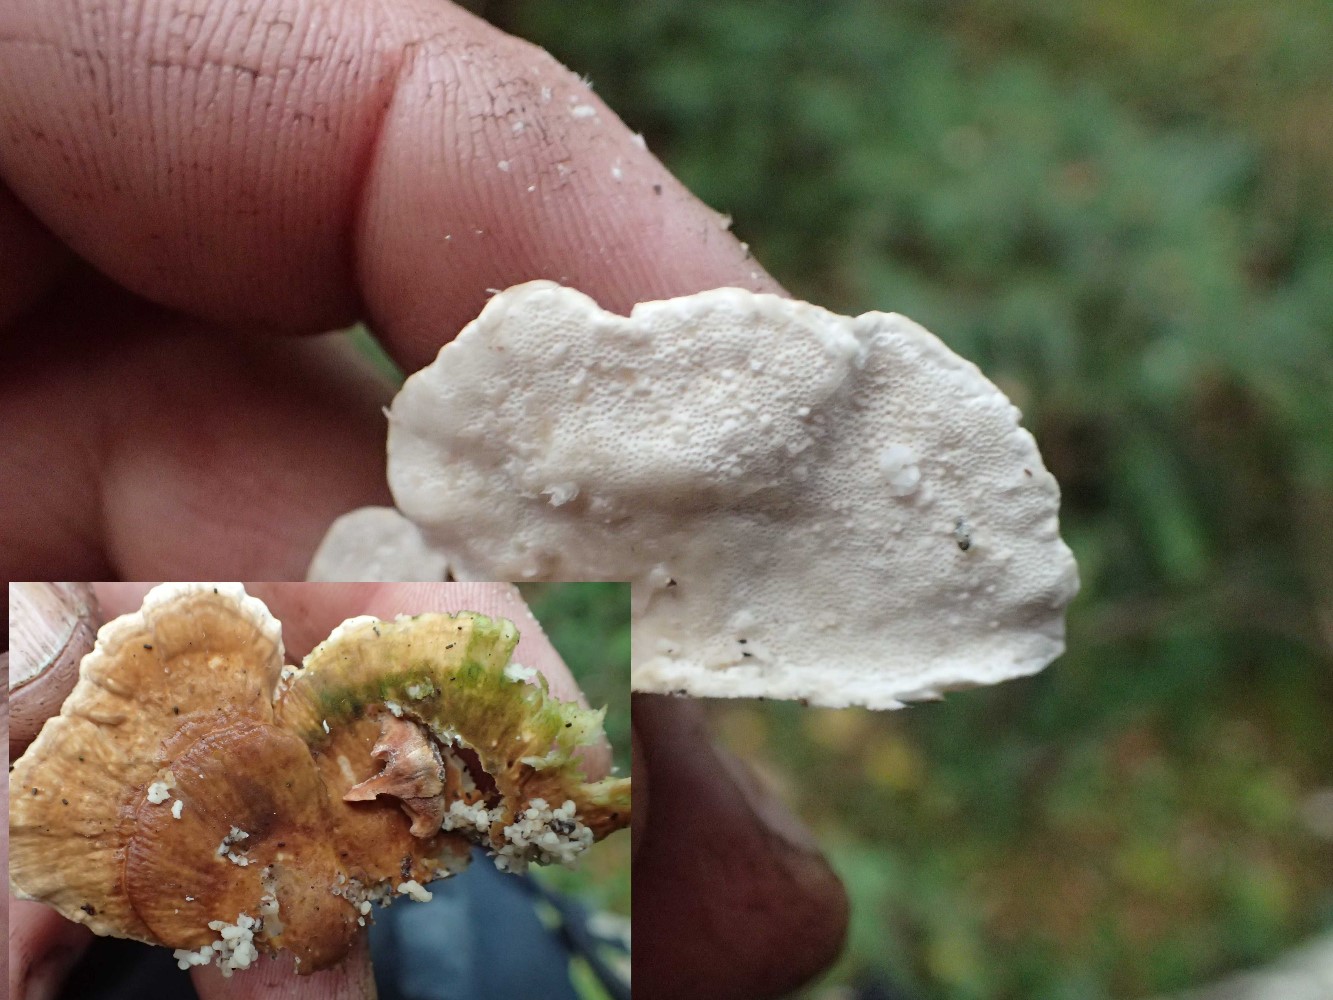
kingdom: Fungi
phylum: Basidiomycota
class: Agaricomycetes
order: Polyporales
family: Polyporaceae
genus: Trametes
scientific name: Trametes ochracea
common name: bæltet læderporesvamp
